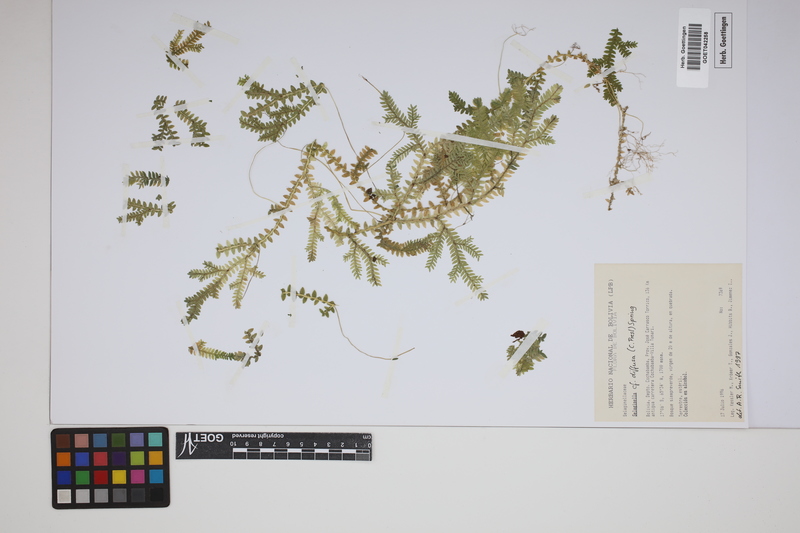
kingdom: Plantae
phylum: Tracheophyta
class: Lycopodiopsida
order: Selaginellales
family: Selaginellaceae
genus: Selaginella
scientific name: Selaginella diffusa
